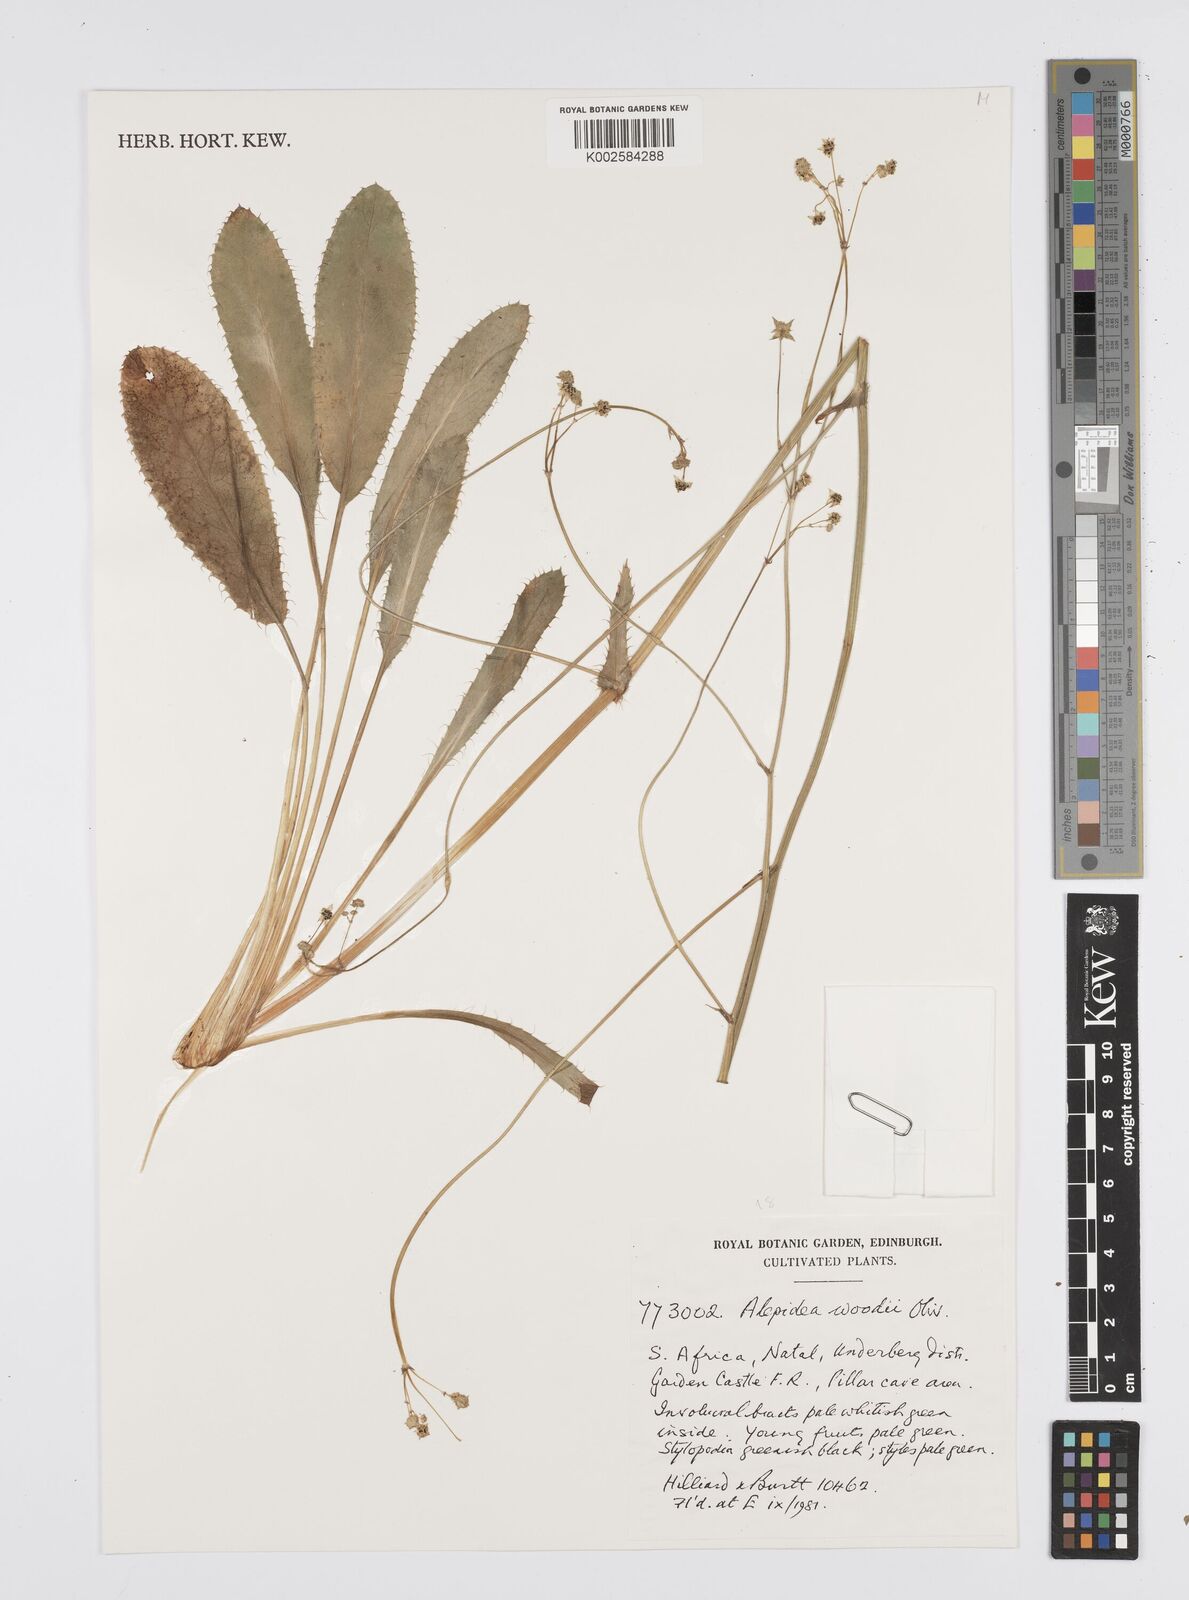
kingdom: Plantae
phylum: Tracheophyta
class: Magnoliopsida
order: Apiales
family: Apiaceae
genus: Alepidea
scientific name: Alepidea woodii
